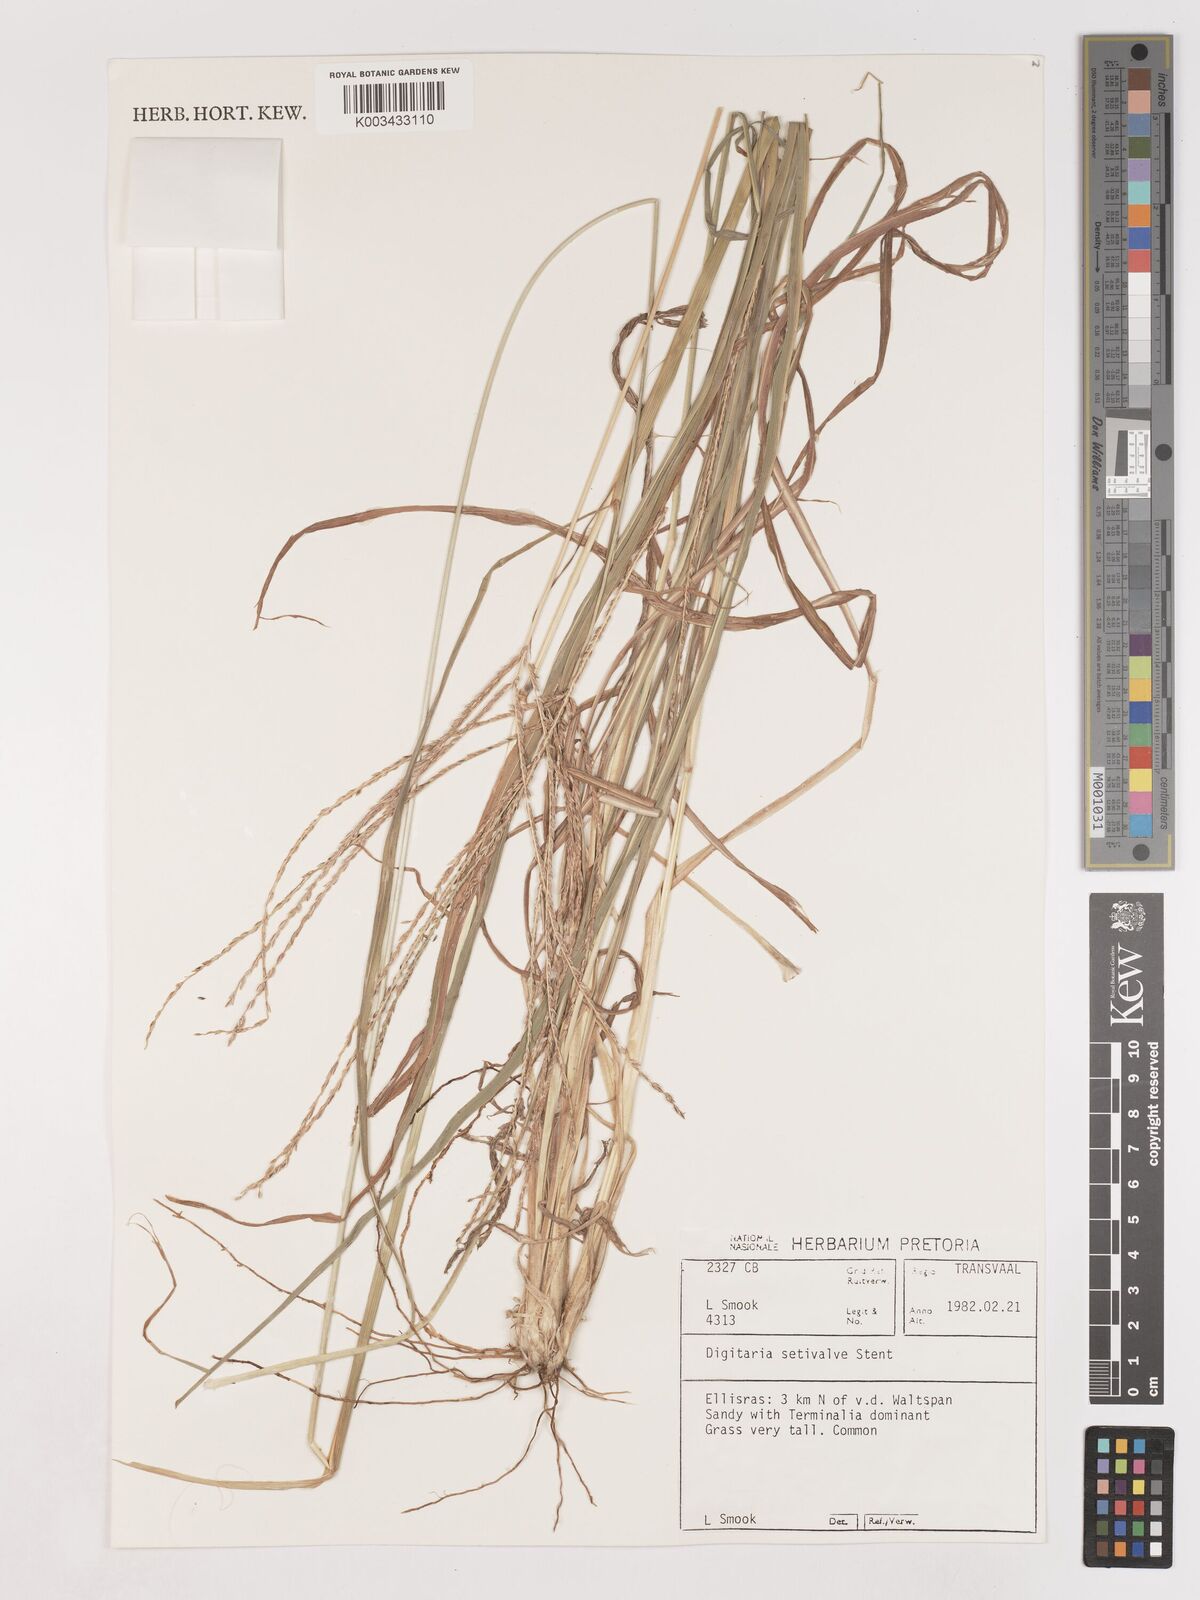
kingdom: Plantae
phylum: Tracheophyta
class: Liliopsida
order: Poales
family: Poaceae
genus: Digitaria
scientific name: Digitaria milanjiana
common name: Madagascar crabgrass
